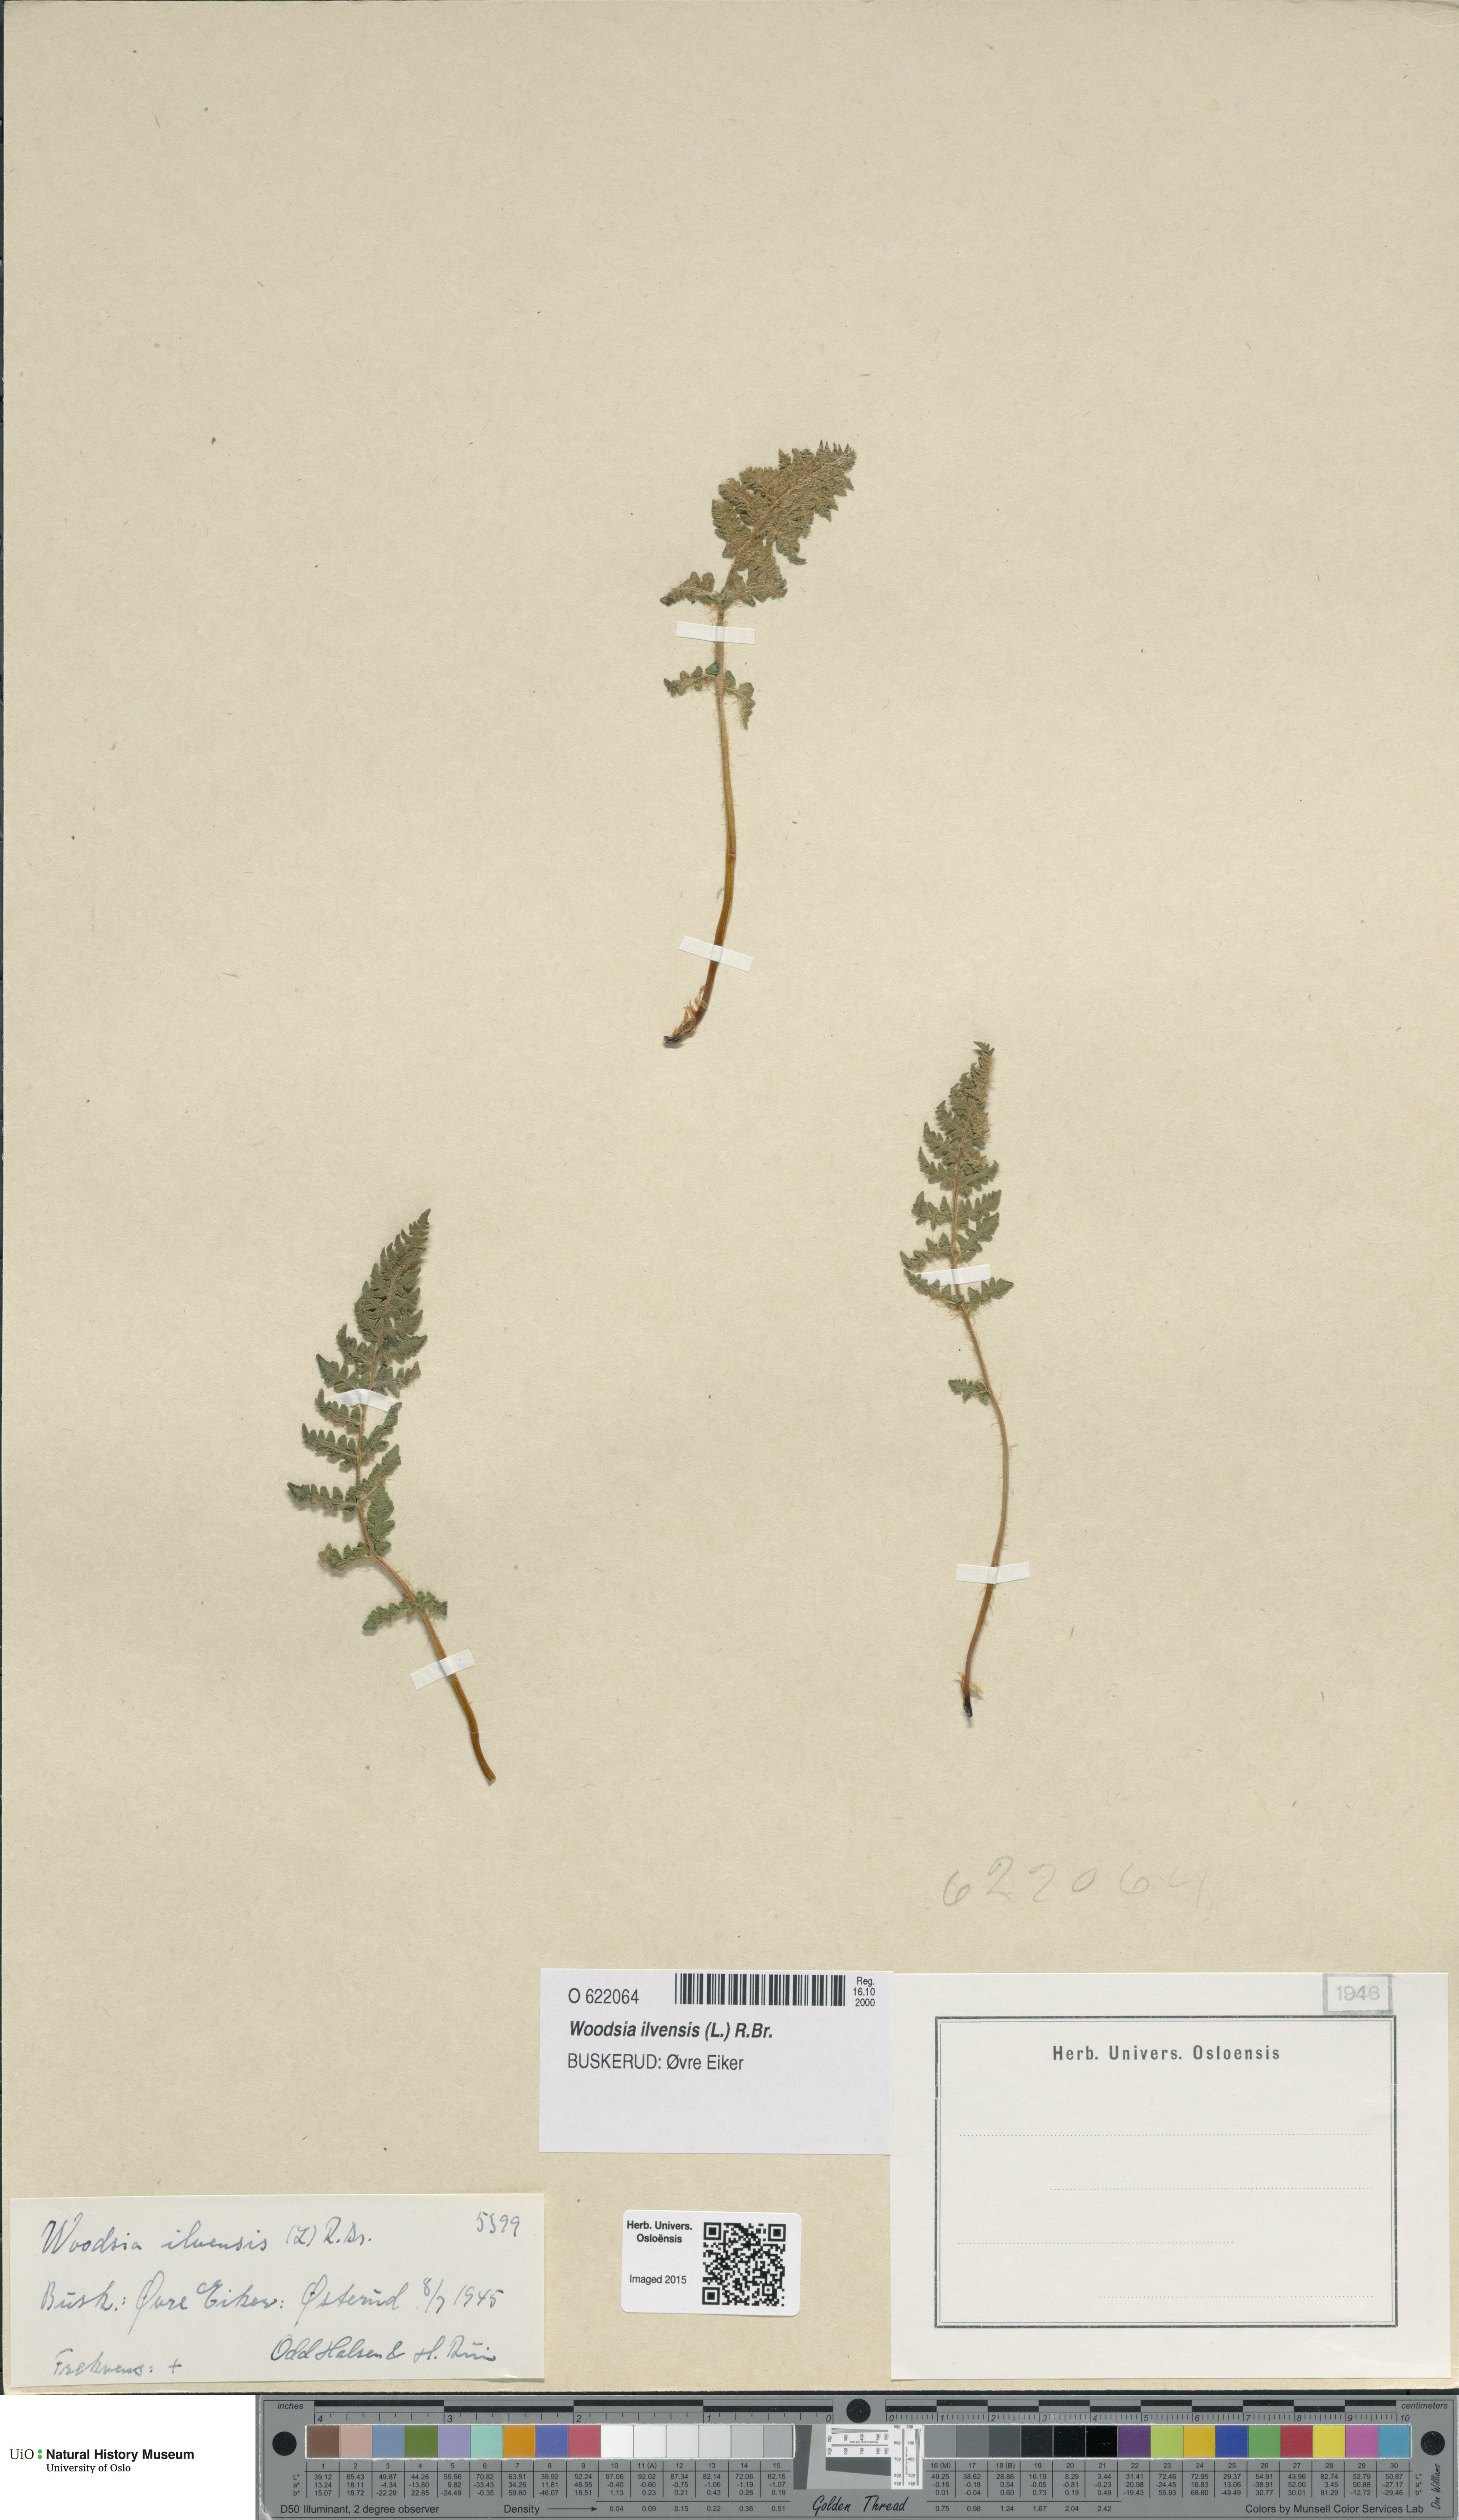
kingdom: Plantae
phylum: Tracheophyta
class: Polypodiopsida
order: Polypodiales
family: Woodsiaceae
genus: Woodsia
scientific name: Woodsia ilvensis
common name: Fragrant woodsia
